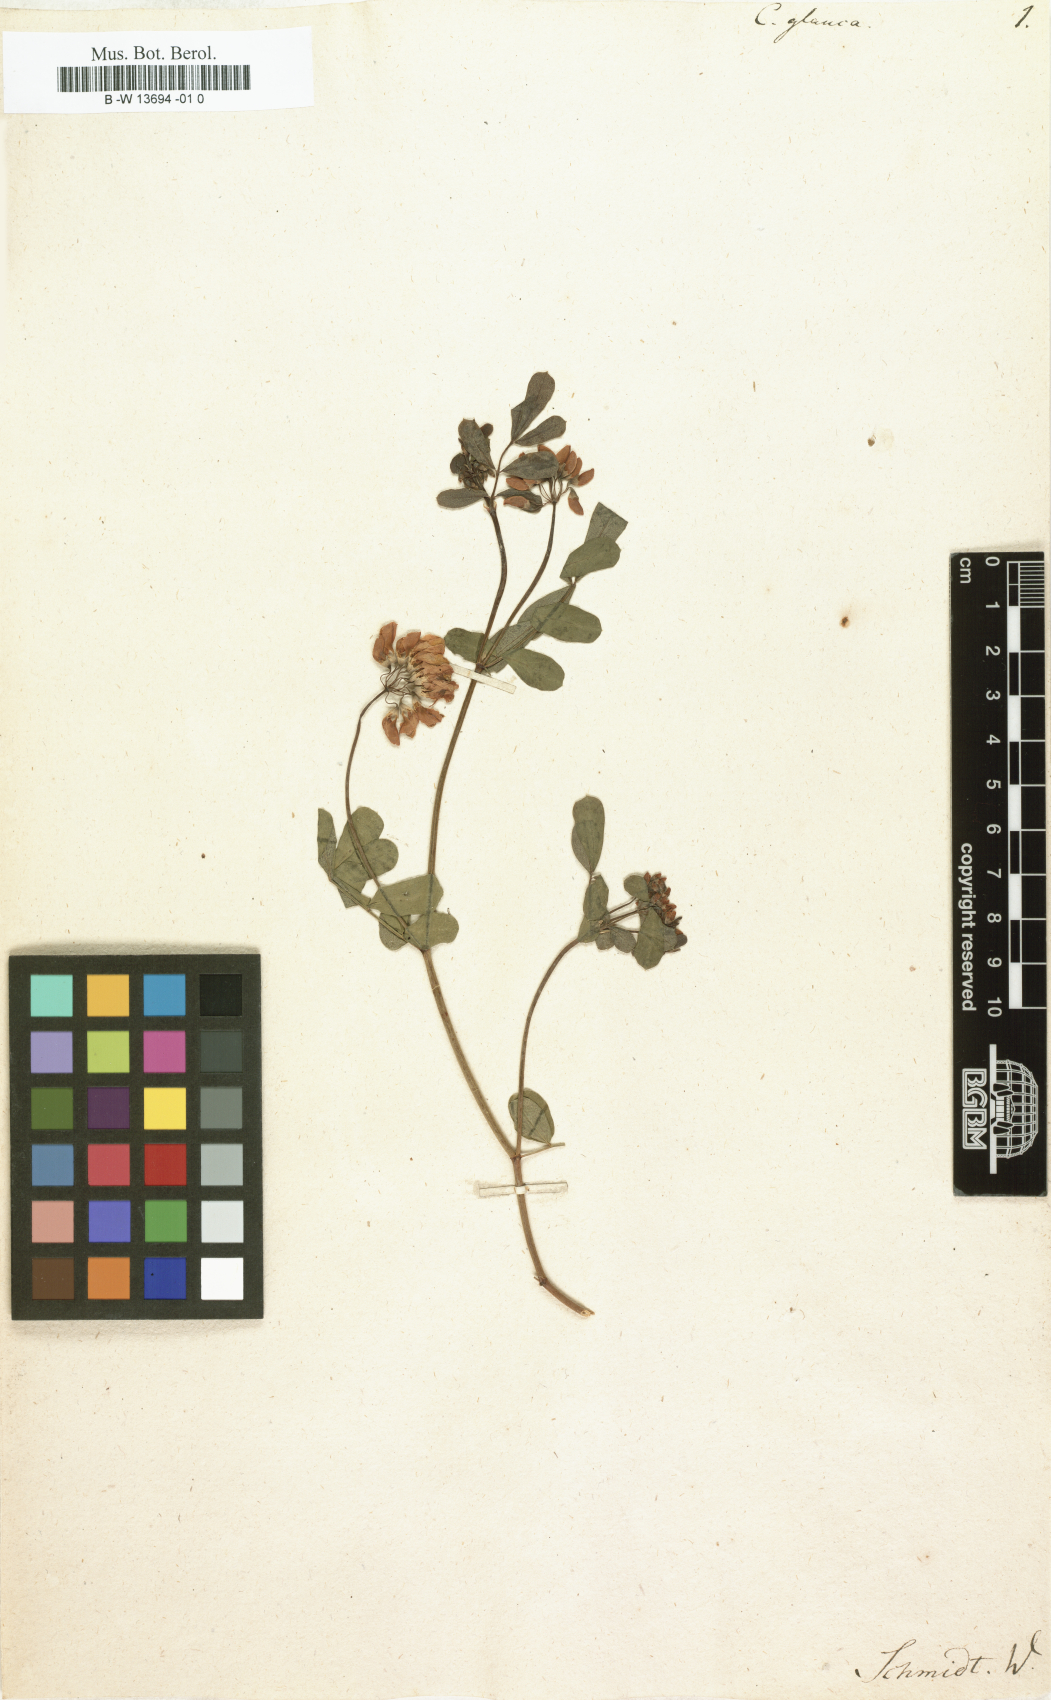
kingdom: Plantae
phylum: Tracheophyta
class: Magnoliopsida
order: Fabales
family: Fabaceae
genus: Coronilla
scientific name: Coronilla glauca
